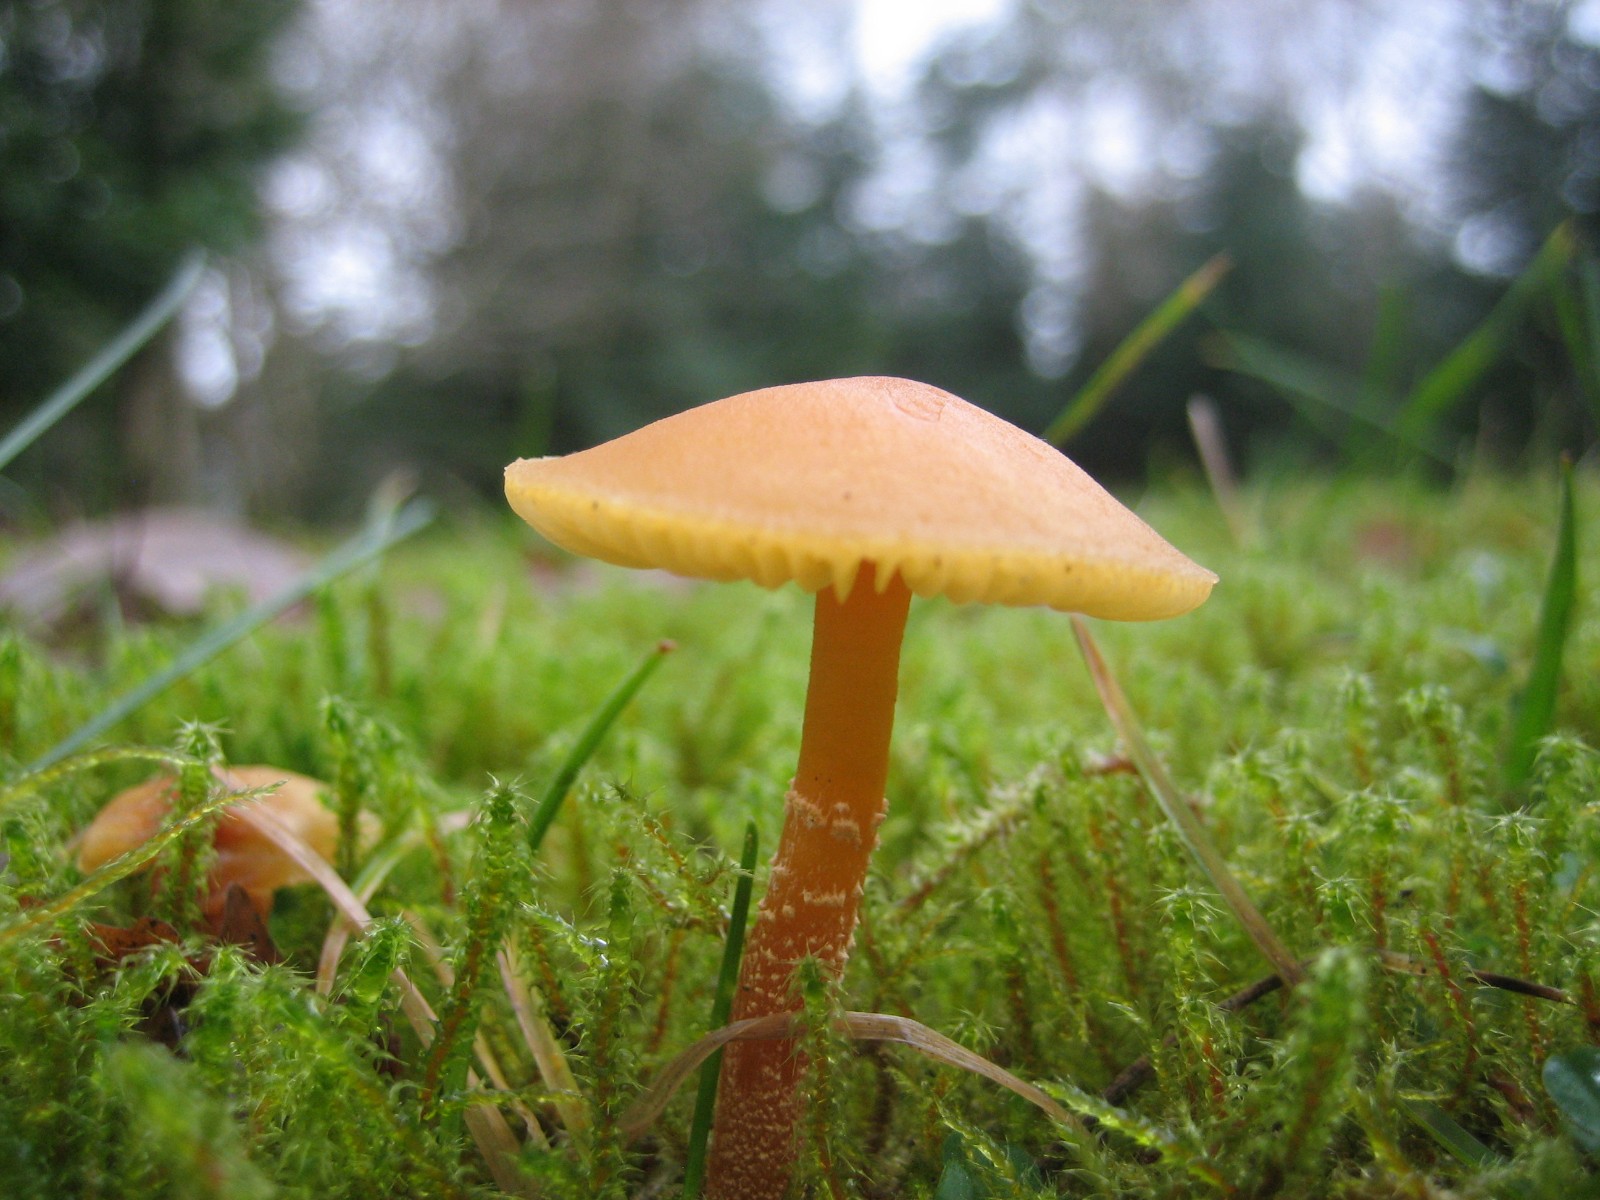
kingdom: Fungi
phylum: Basidiomycota
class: Agaricomycetes
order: Agaricales
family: Tricholomataceae
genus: Cystoderma
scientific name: Cystoderma amianthinum
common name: okkergul grynhat
